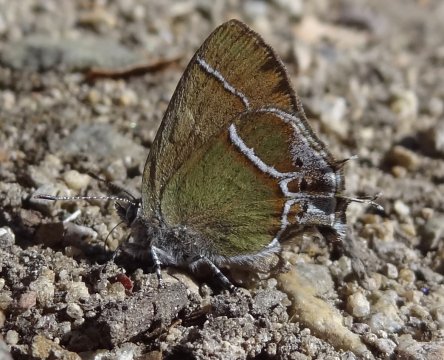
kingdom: Animalia
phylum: Arthropoda
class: Insecta
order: Lepidoptera
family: Lycaenidae
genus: Xamia
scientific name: Xamia xami
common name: Xami Hairstreak
